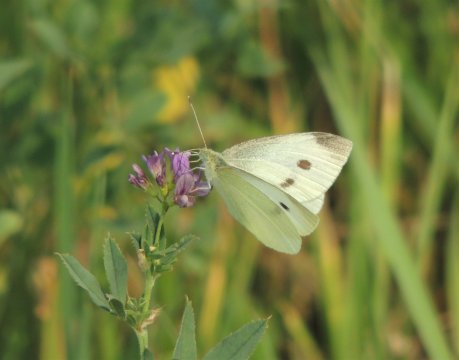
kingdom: Animalia
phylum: Arthropoda
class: Insecta
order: Lepidoptera
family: Pieridae
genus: Pieris
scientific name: Pieris rapae
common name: Cabbage White
